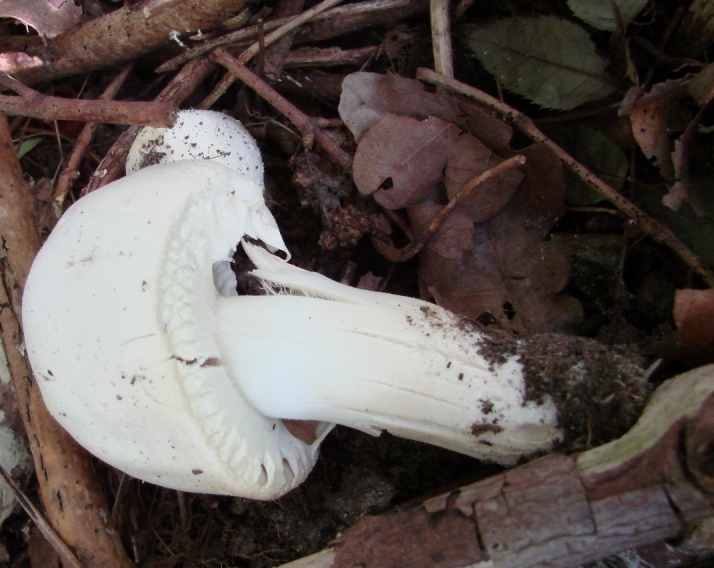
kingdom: Fungi
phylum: Basidiomycota
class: Agaricomycetes
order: Agaricales
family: Agaricaceae
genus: Agaricus
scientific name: Agaricus xanthodermus
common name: karbol-champignon
